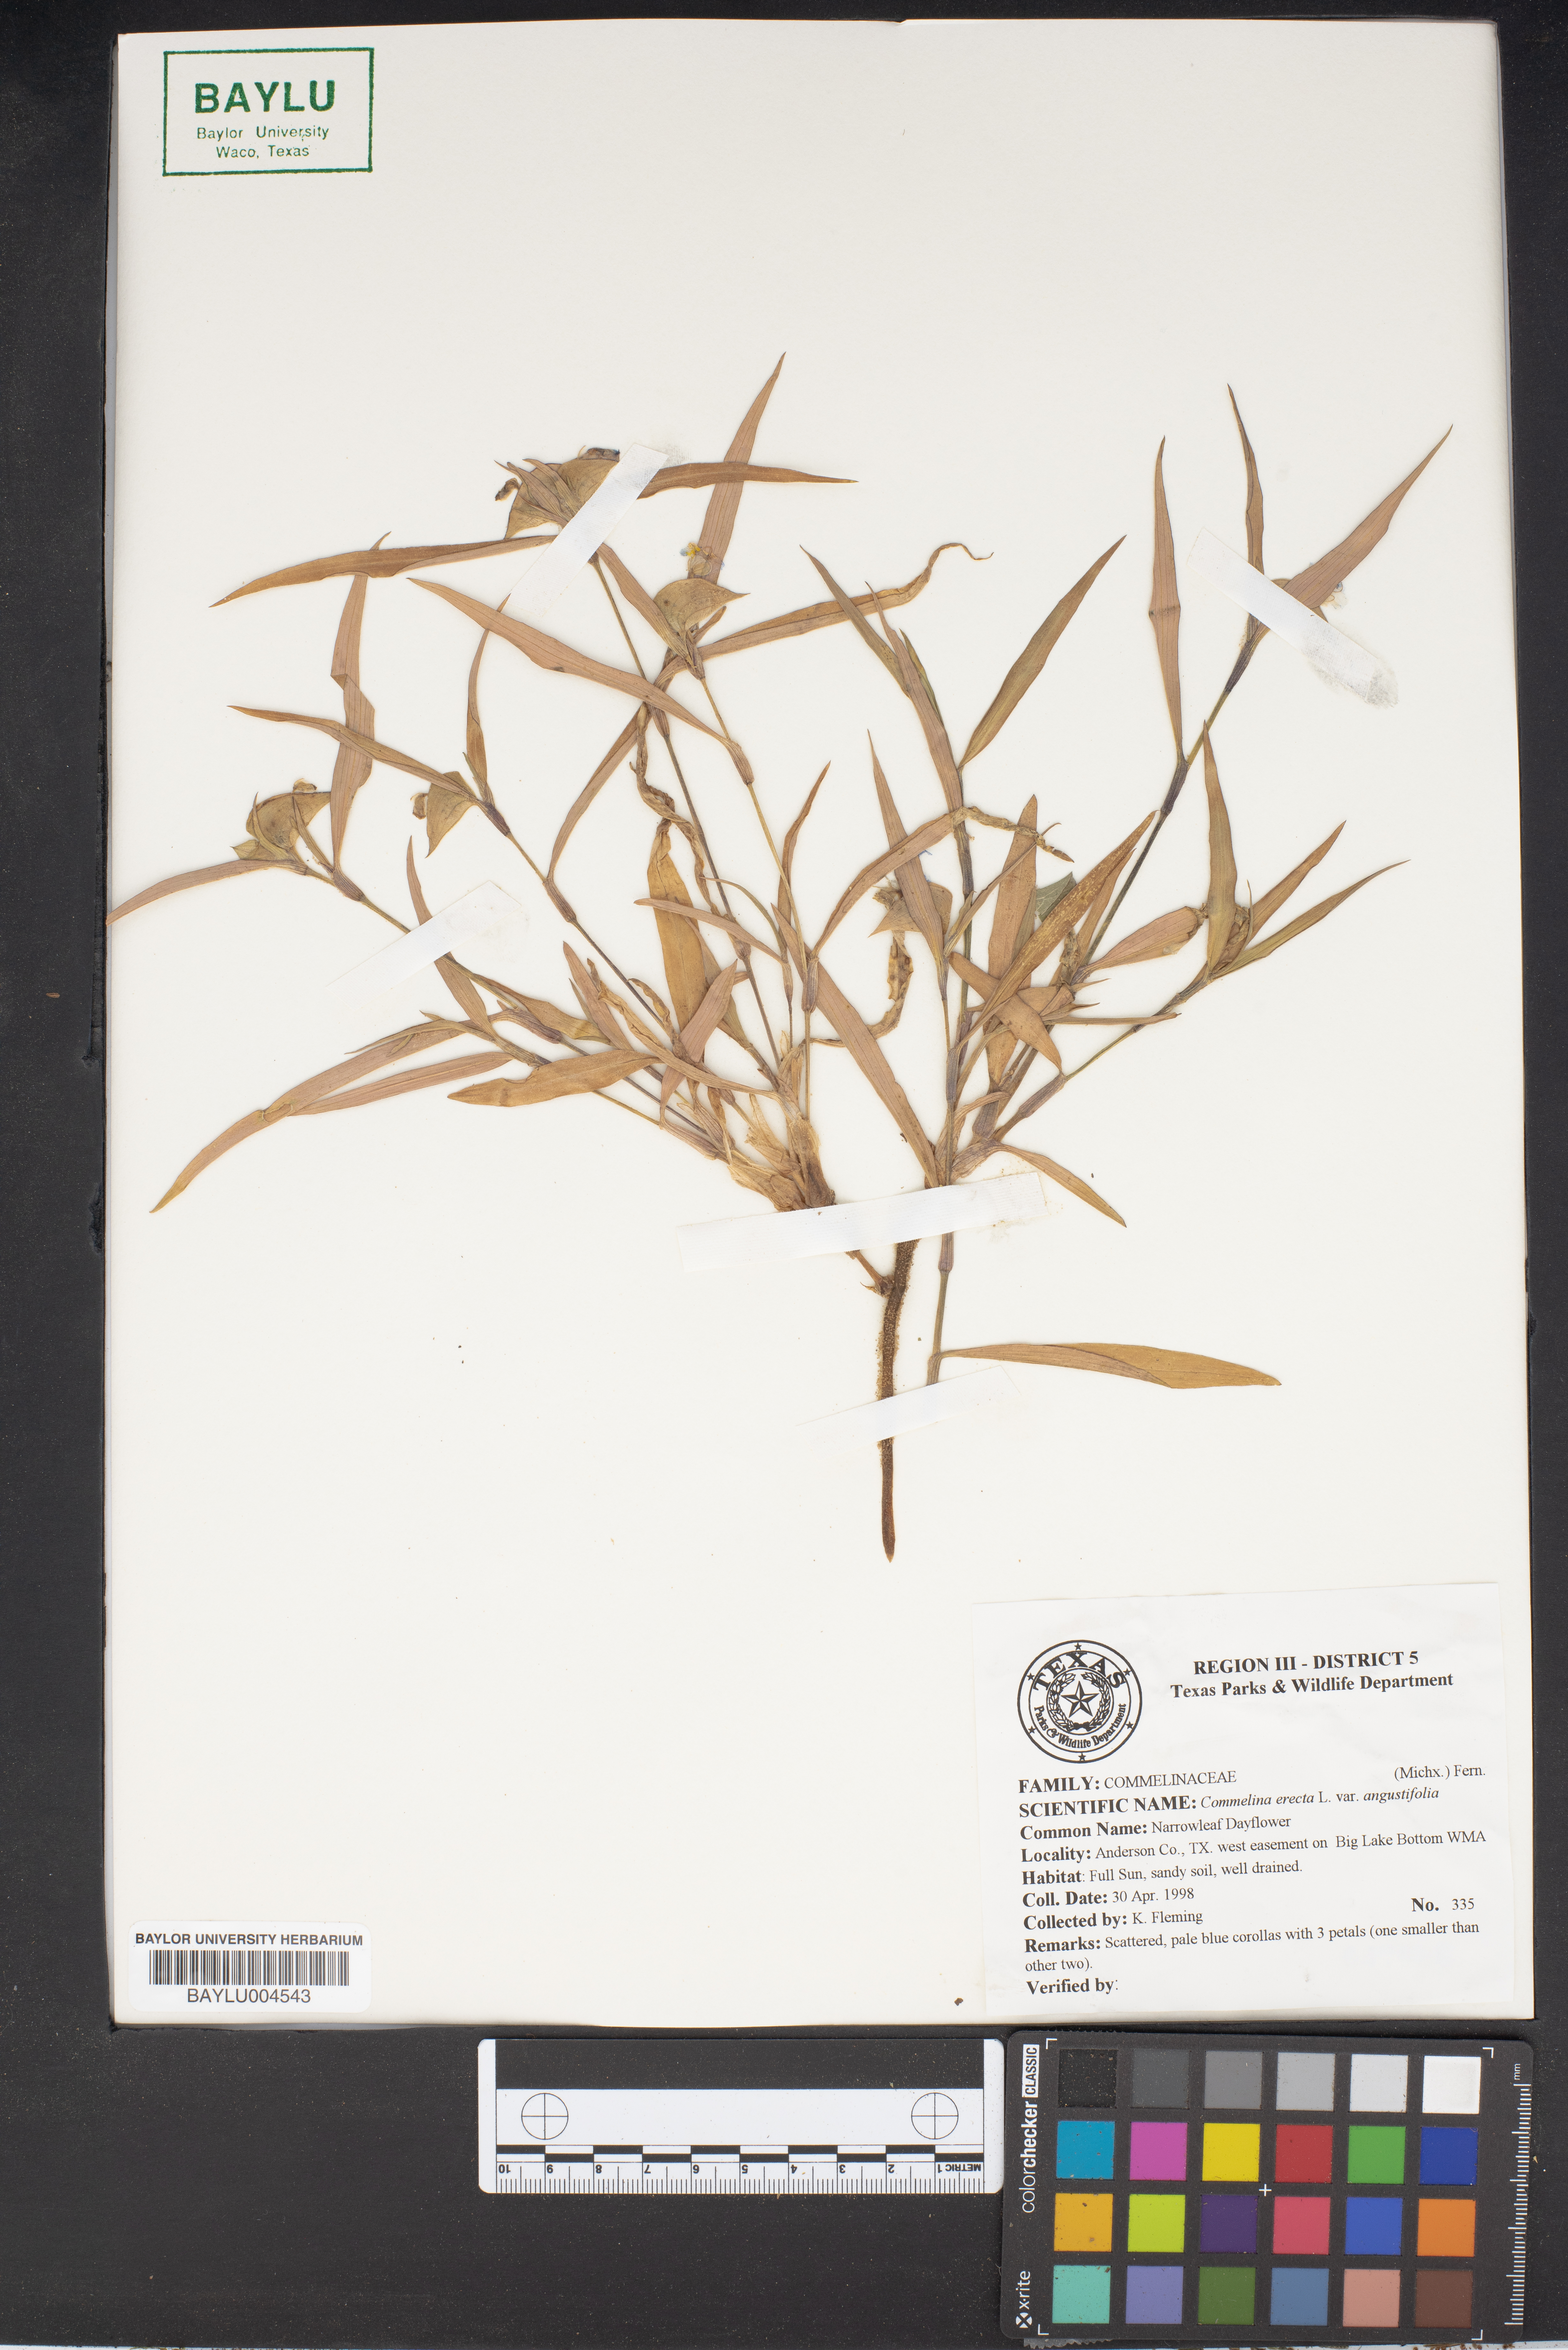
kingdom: Plantae
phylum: Tracheophyta
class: Liliopsida
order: Commelinales
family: Commelinaceae
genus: Commelina
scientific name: Commelina erecta
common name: Blousel blommetjie
